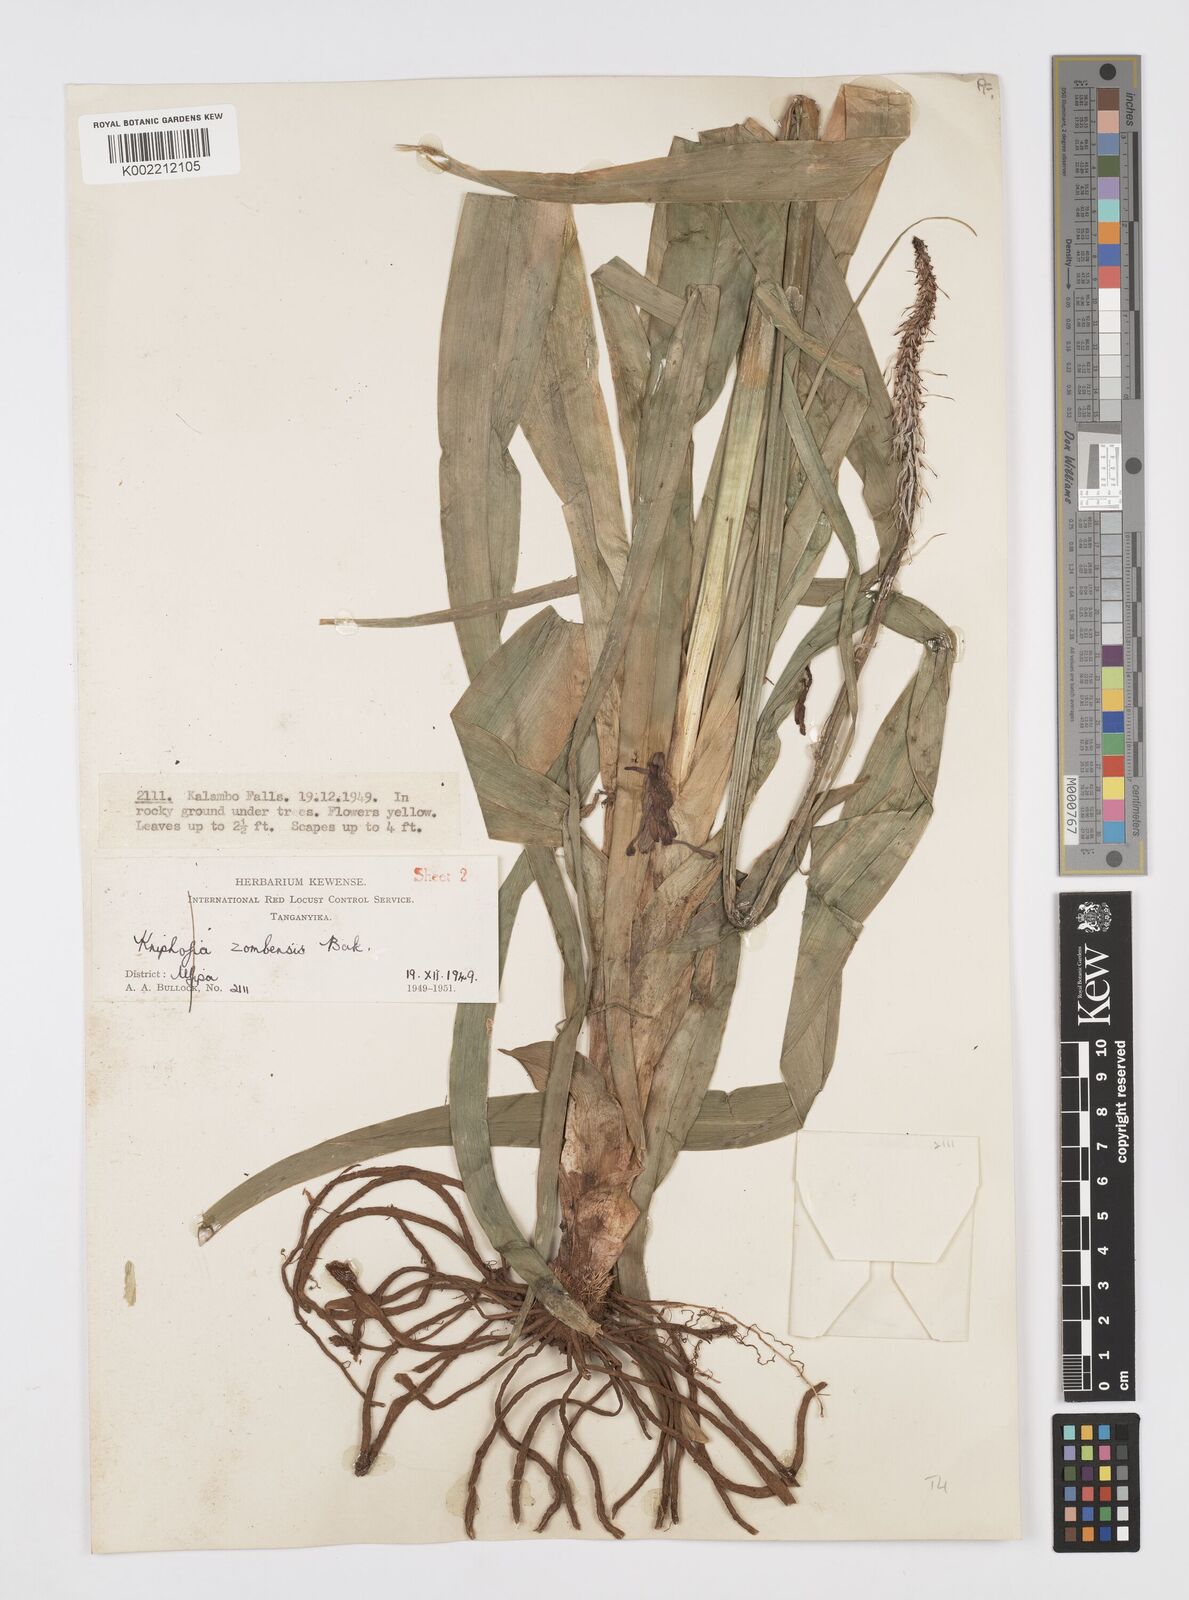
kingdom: Plantae
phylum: Tracheophyta
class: Liliopsida
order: Asparagales
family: Asphodelaceae
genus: Kniphofia
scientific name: Kniphofia grantii
